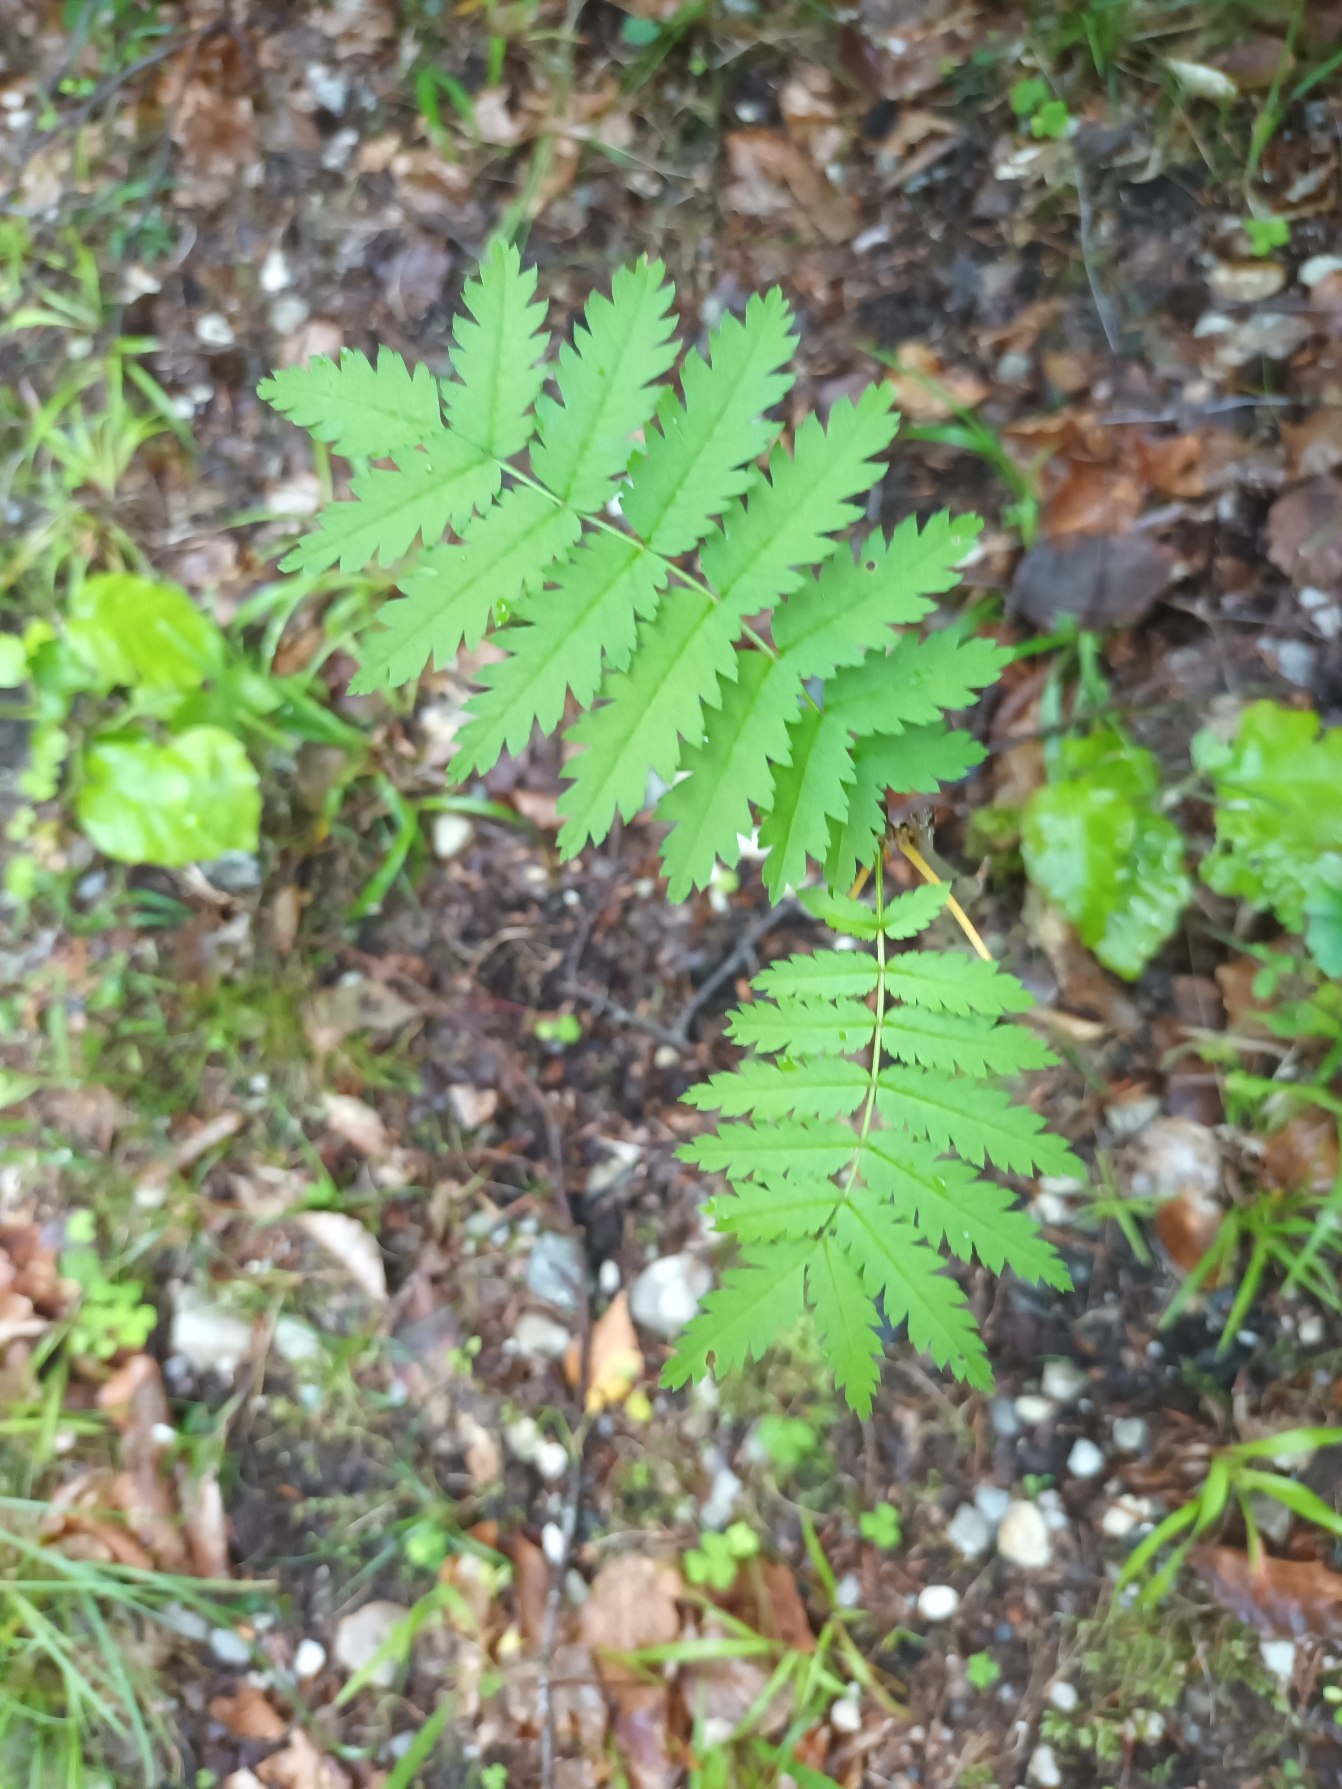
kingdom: Plantae
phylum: Tracheophyta
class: Magnoliopsida
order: Rosales
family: Rosaceae
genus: Sorbus
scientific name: Sorbus aucuparia
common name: Almindelig røn
